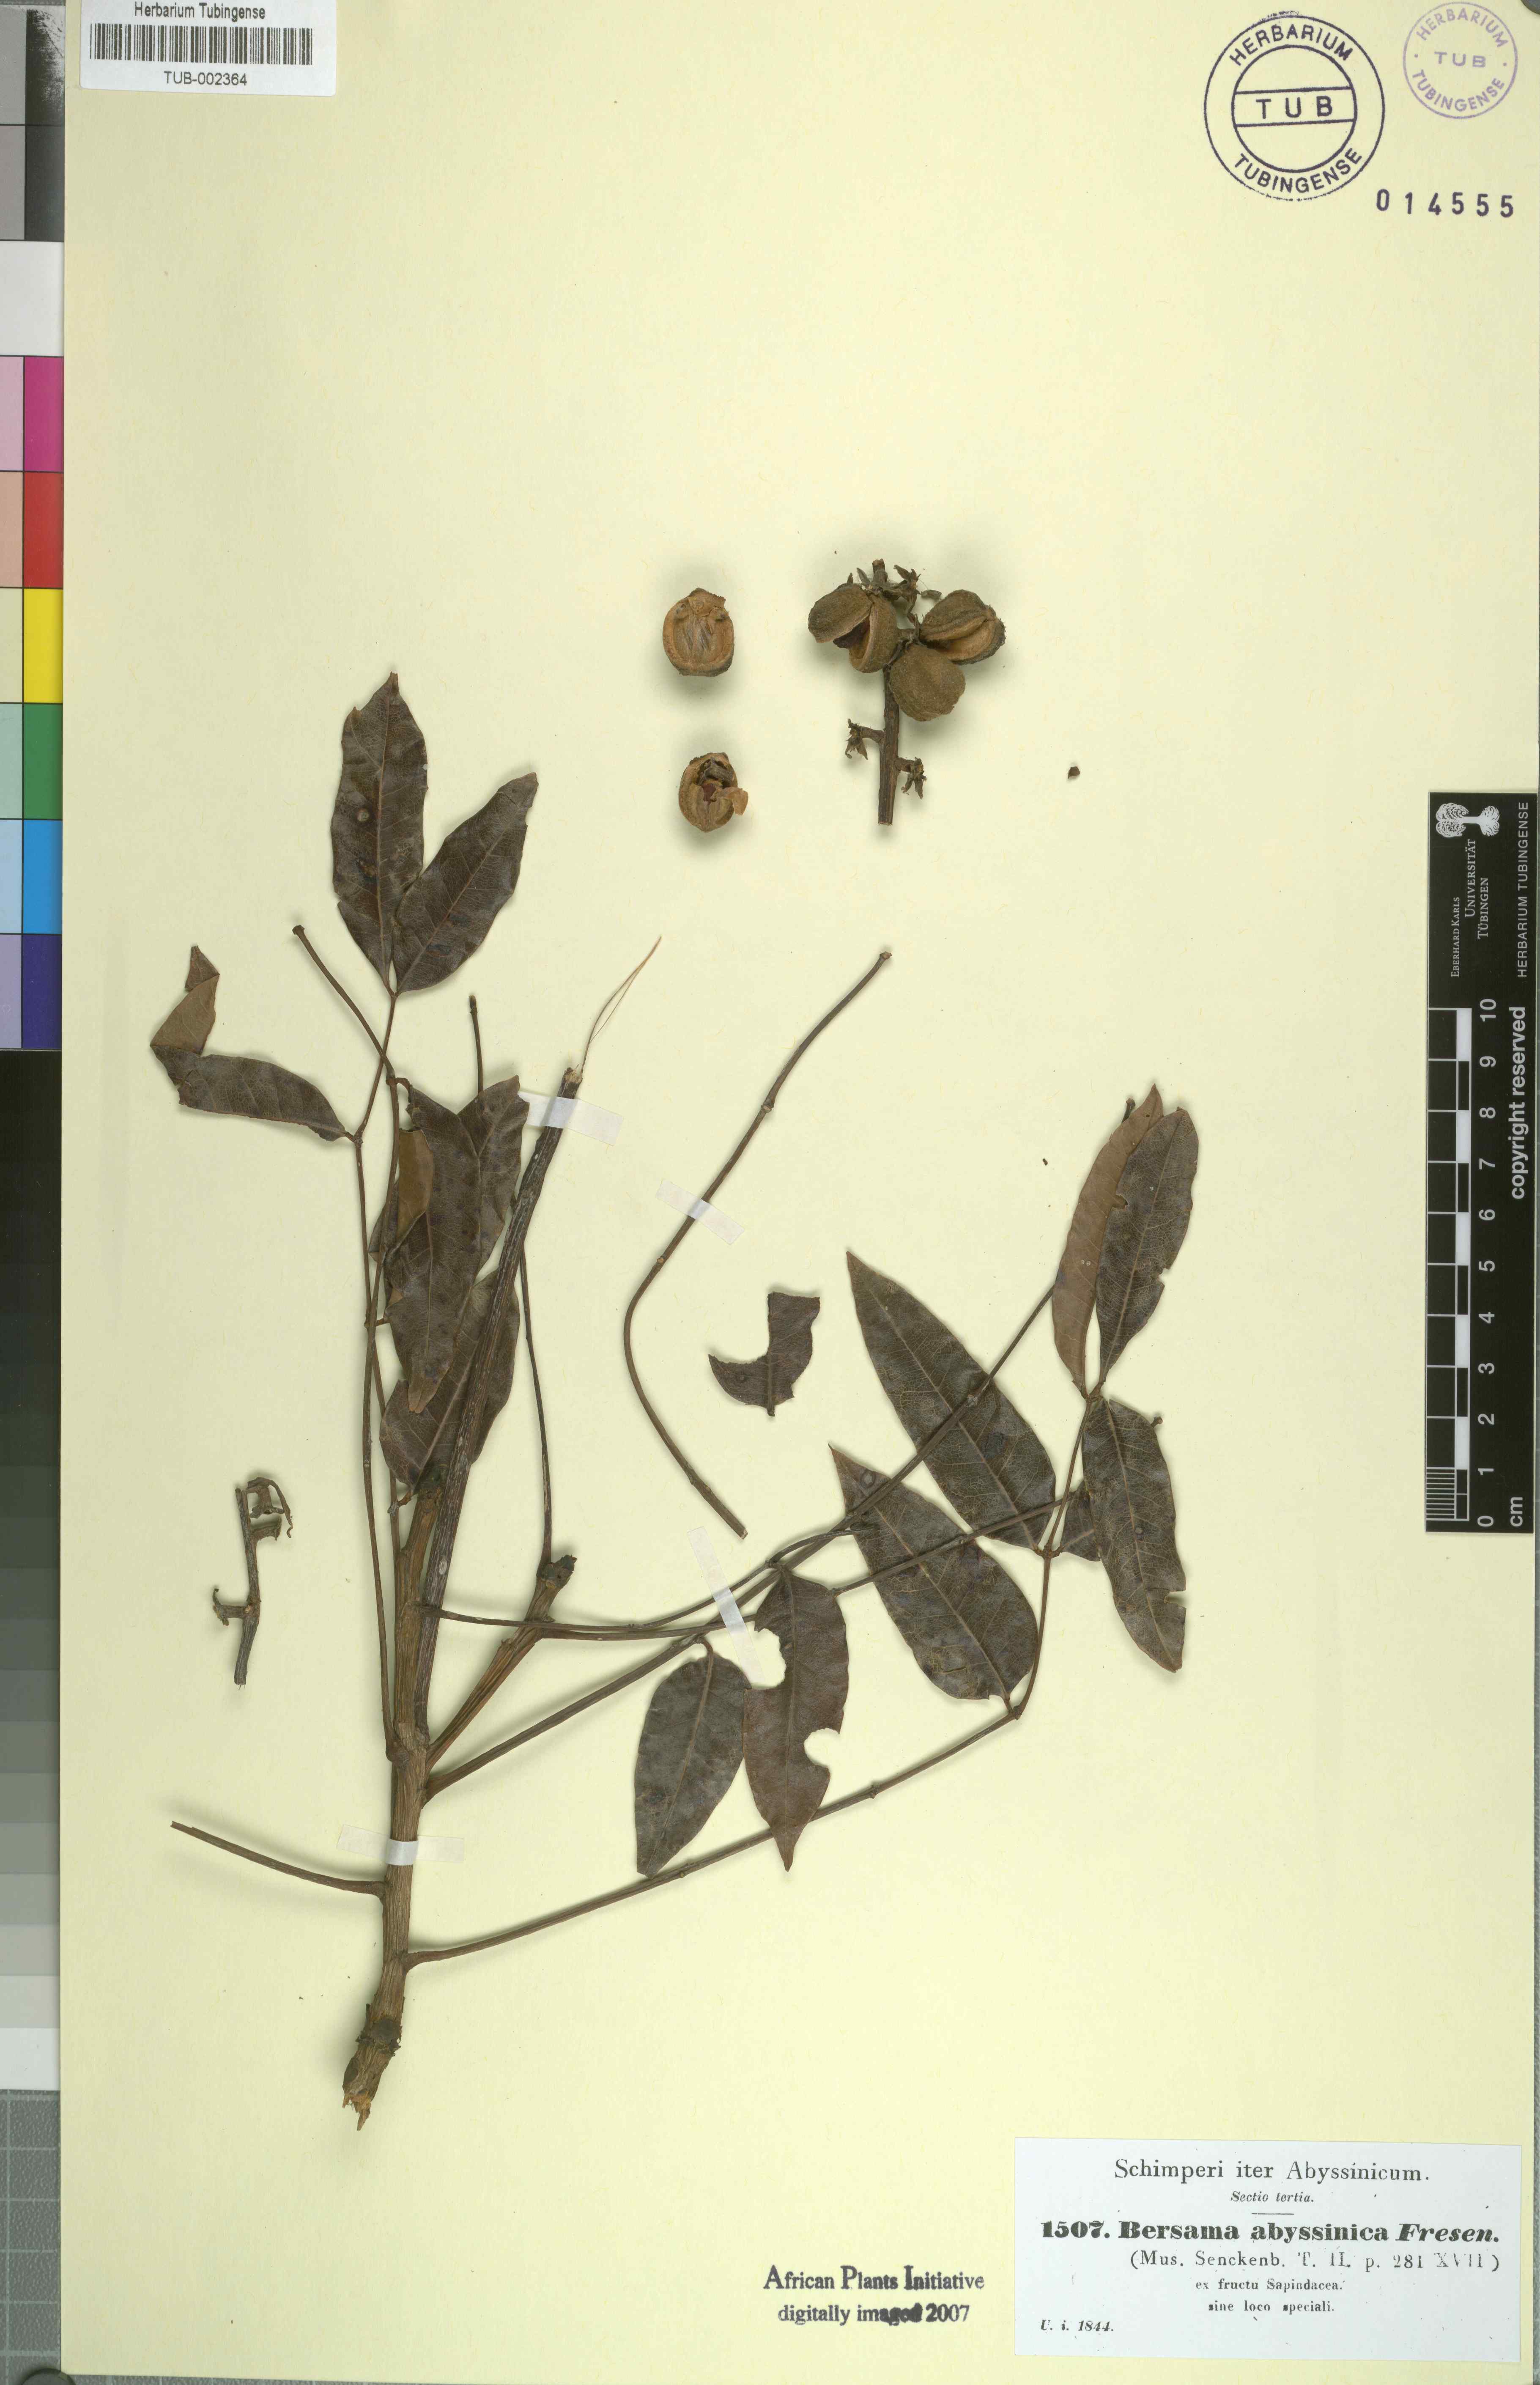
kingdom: Plantae
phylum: Tracheophyta
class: Magnoliopsida
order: Geraniales
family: Melianthaceae
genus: Bersama
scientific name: Bersama abyssinica
